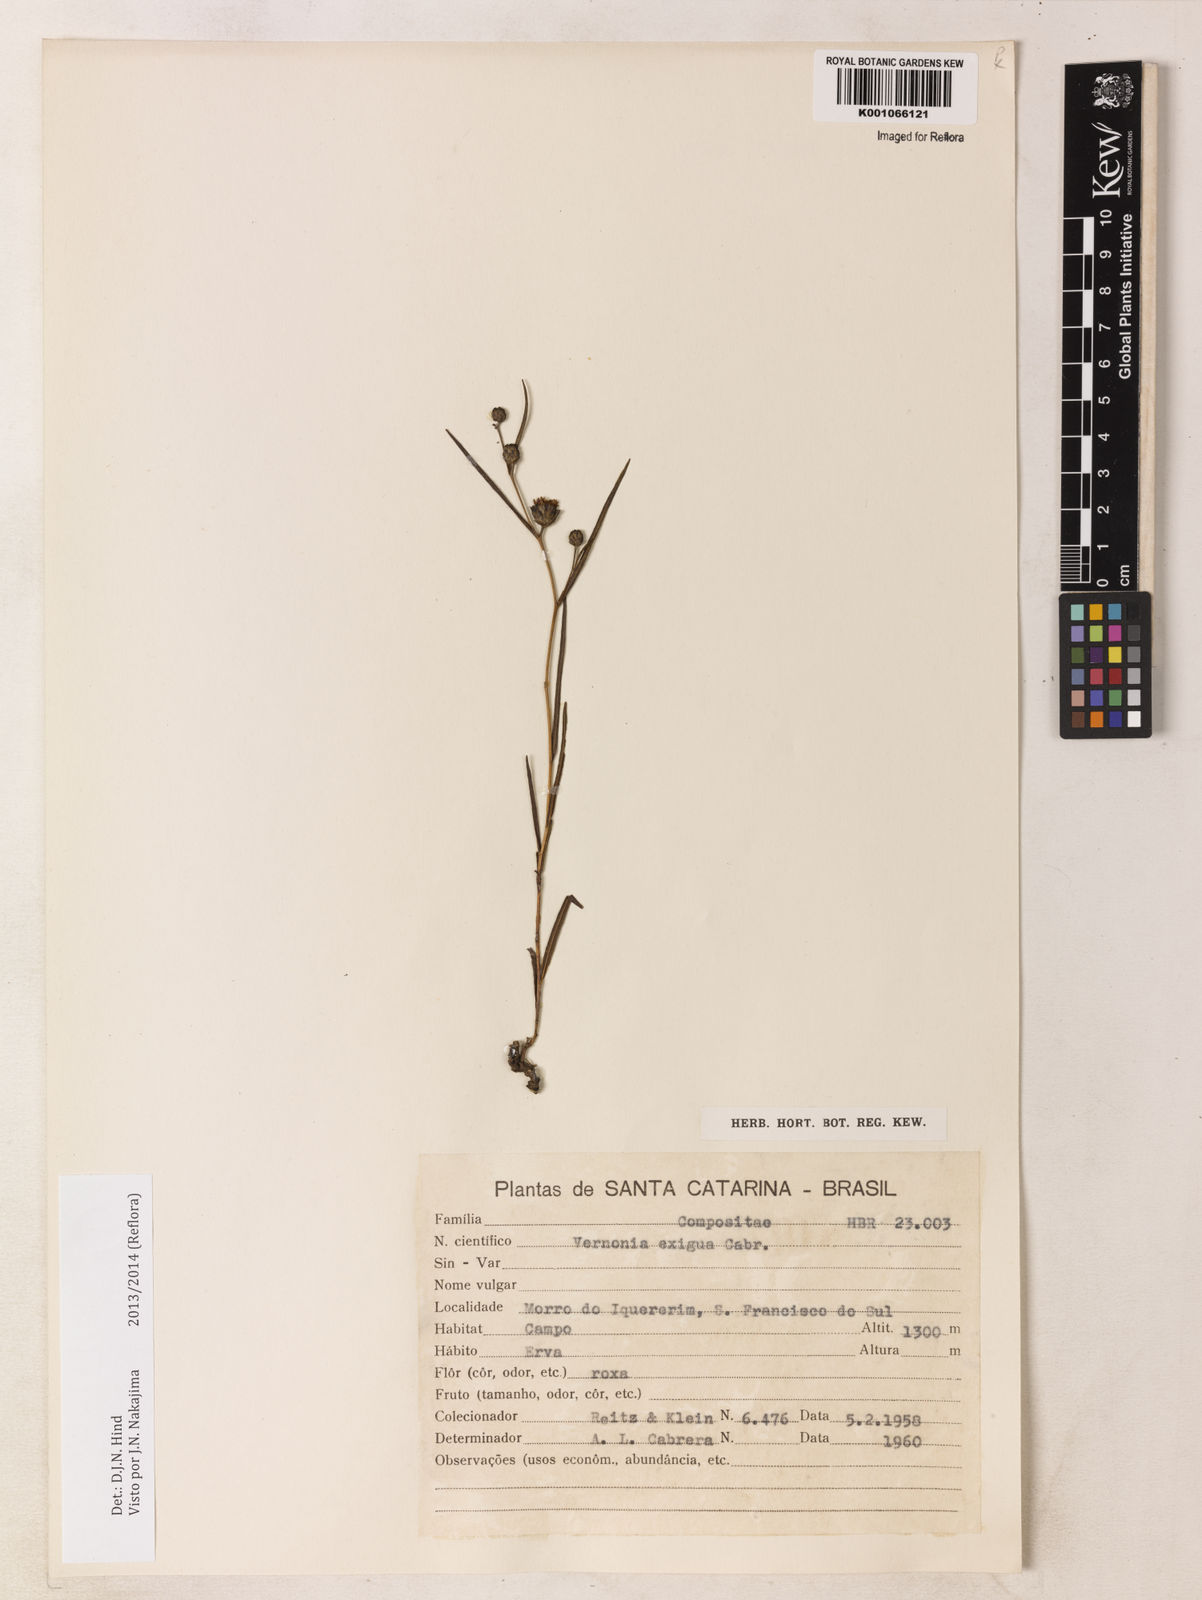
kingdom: Plantae
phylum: Tracheophyta
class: Magnoliopsida
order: Asterales
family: Asteraceae
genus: Lessingianthus
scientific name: Lessingianthus exiguus
